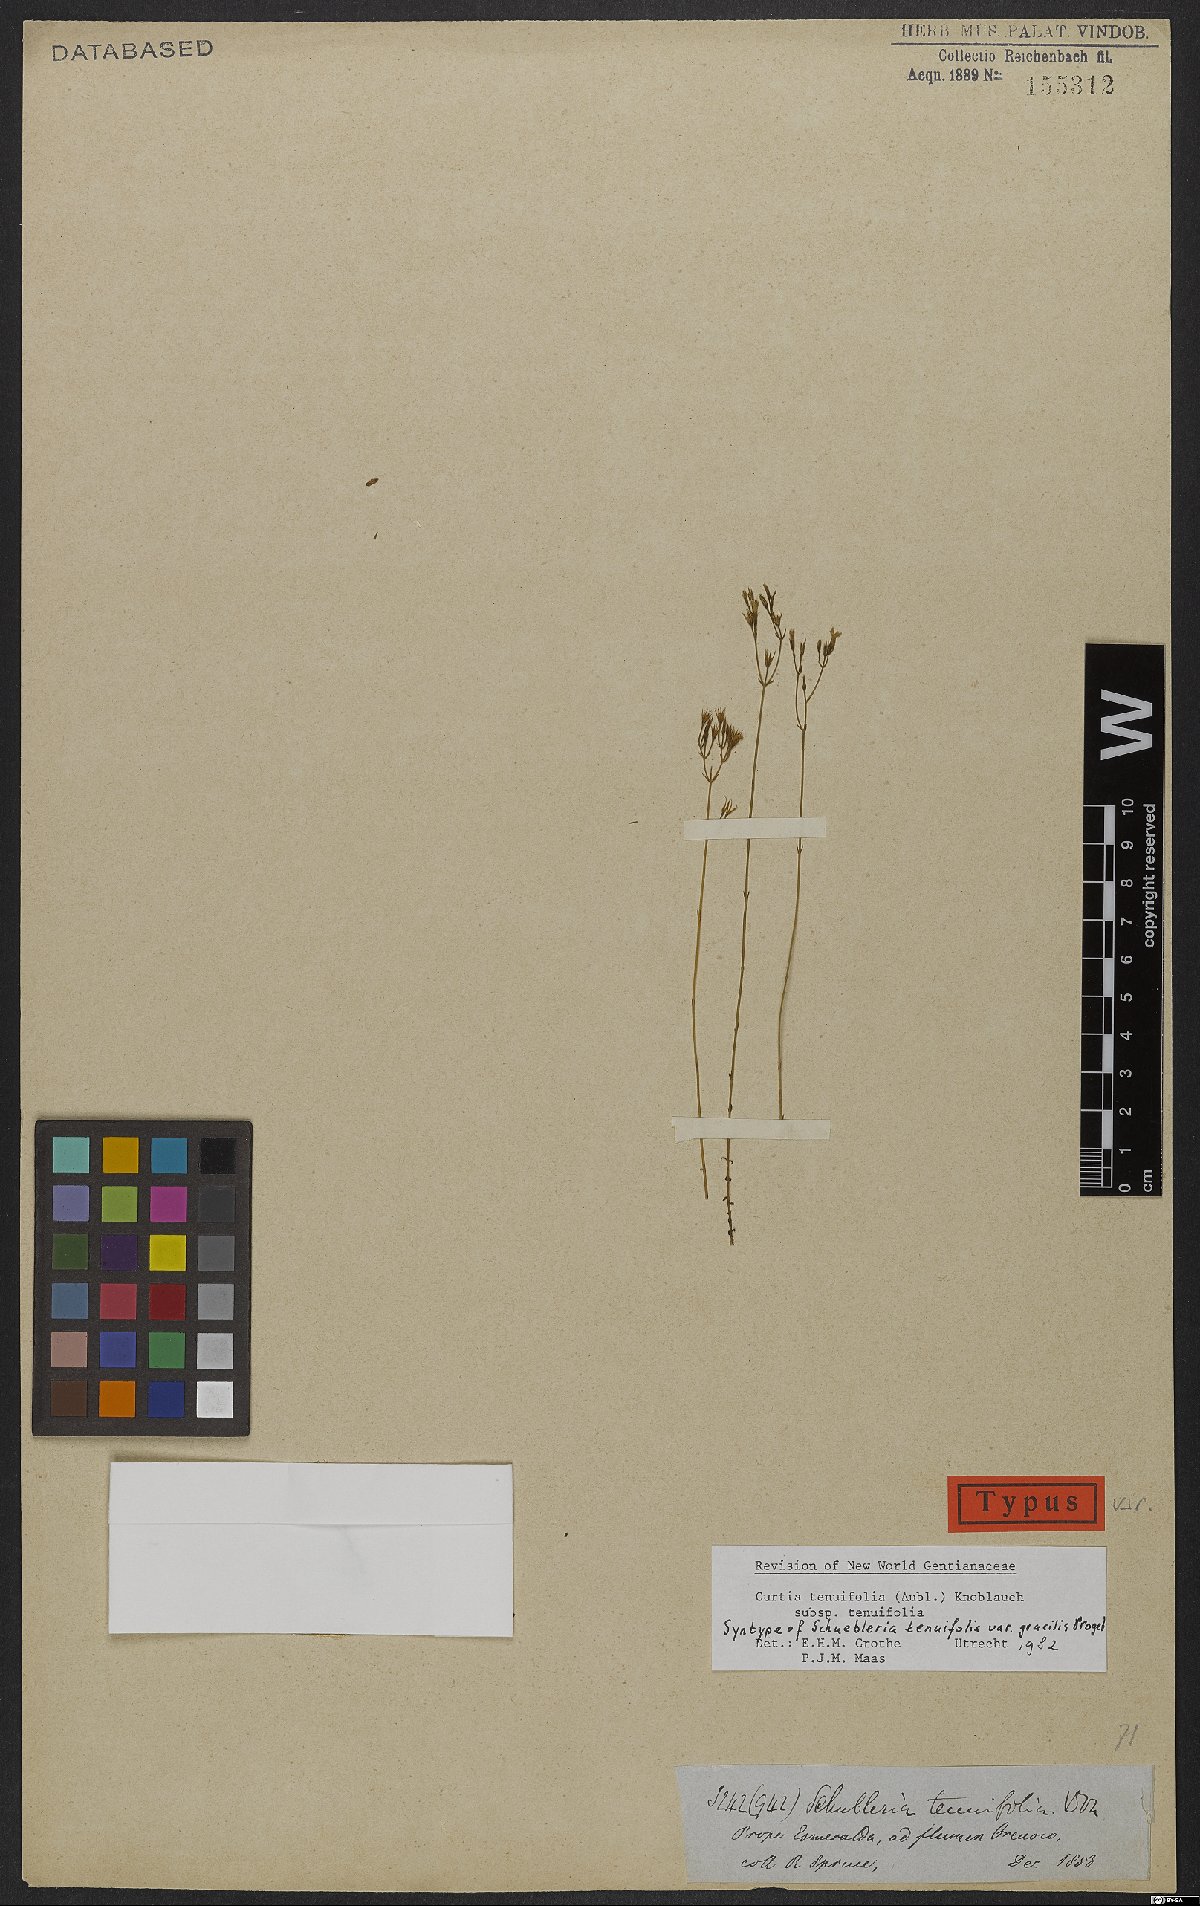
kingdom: Plantae
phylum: Tracheophyta
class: Magnoliopsida
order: Gentianales
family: Gentianaceae
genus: Curtia
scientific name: Curtia tenuifolia
